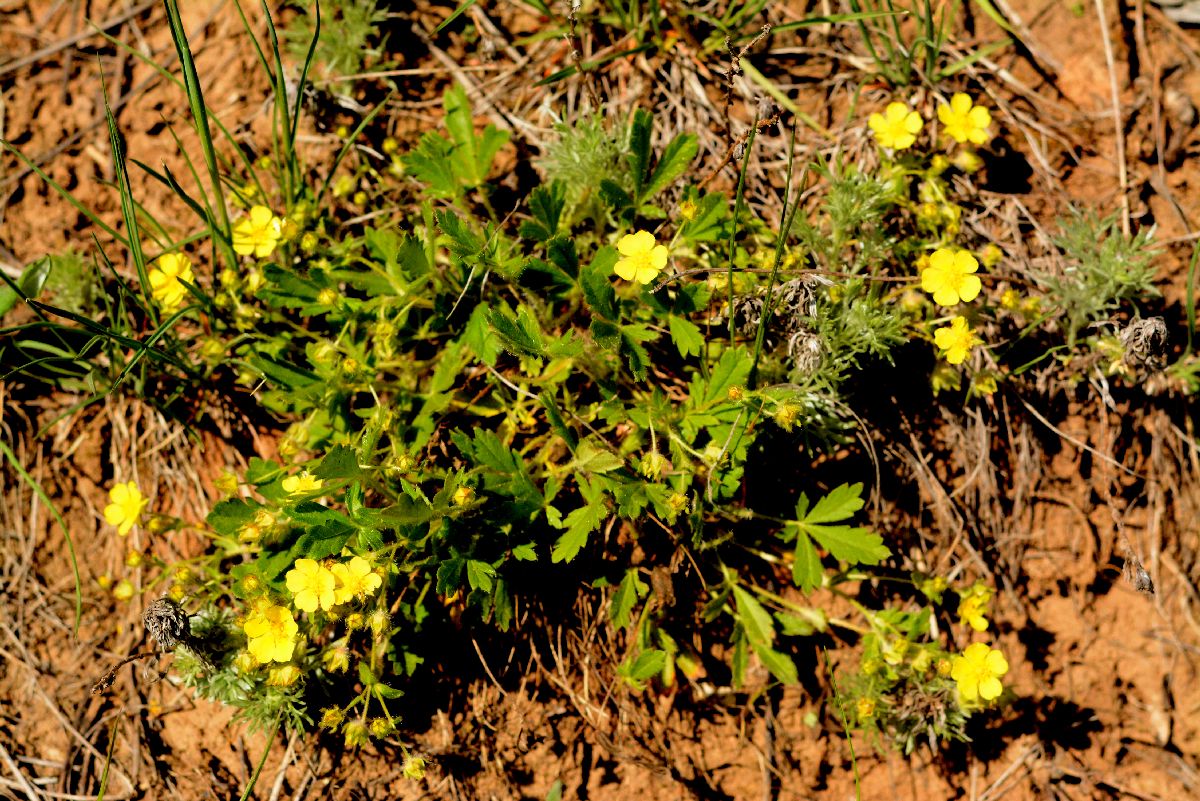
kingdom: Plantae
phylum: Tracheophyta
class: Magnoliopsida
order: Rosales
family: Rosaceae
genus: Potentilla
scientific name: Potentilla heptaphylla
